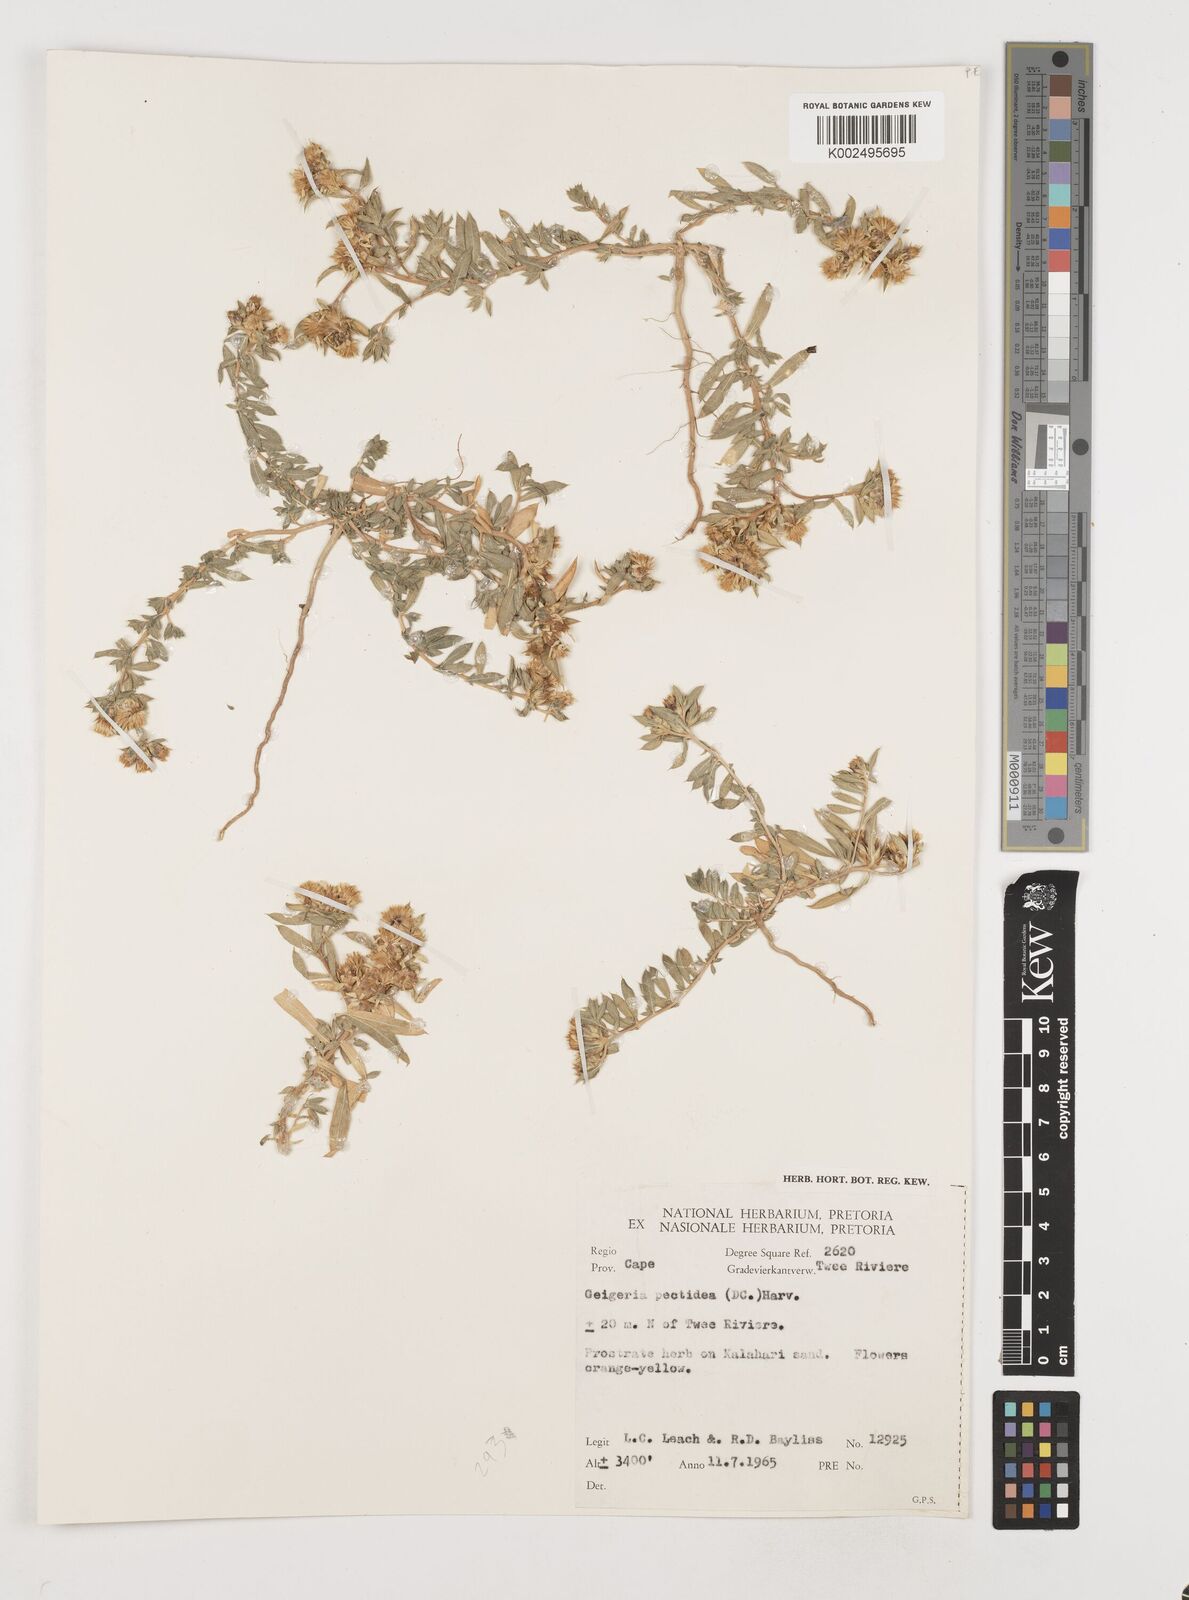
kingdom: Plantae
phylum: Tracheophyta
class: Magnoliopsida
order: Asterales
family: Asteraceae
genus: Geigeria
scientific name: Geigeria pectidea
